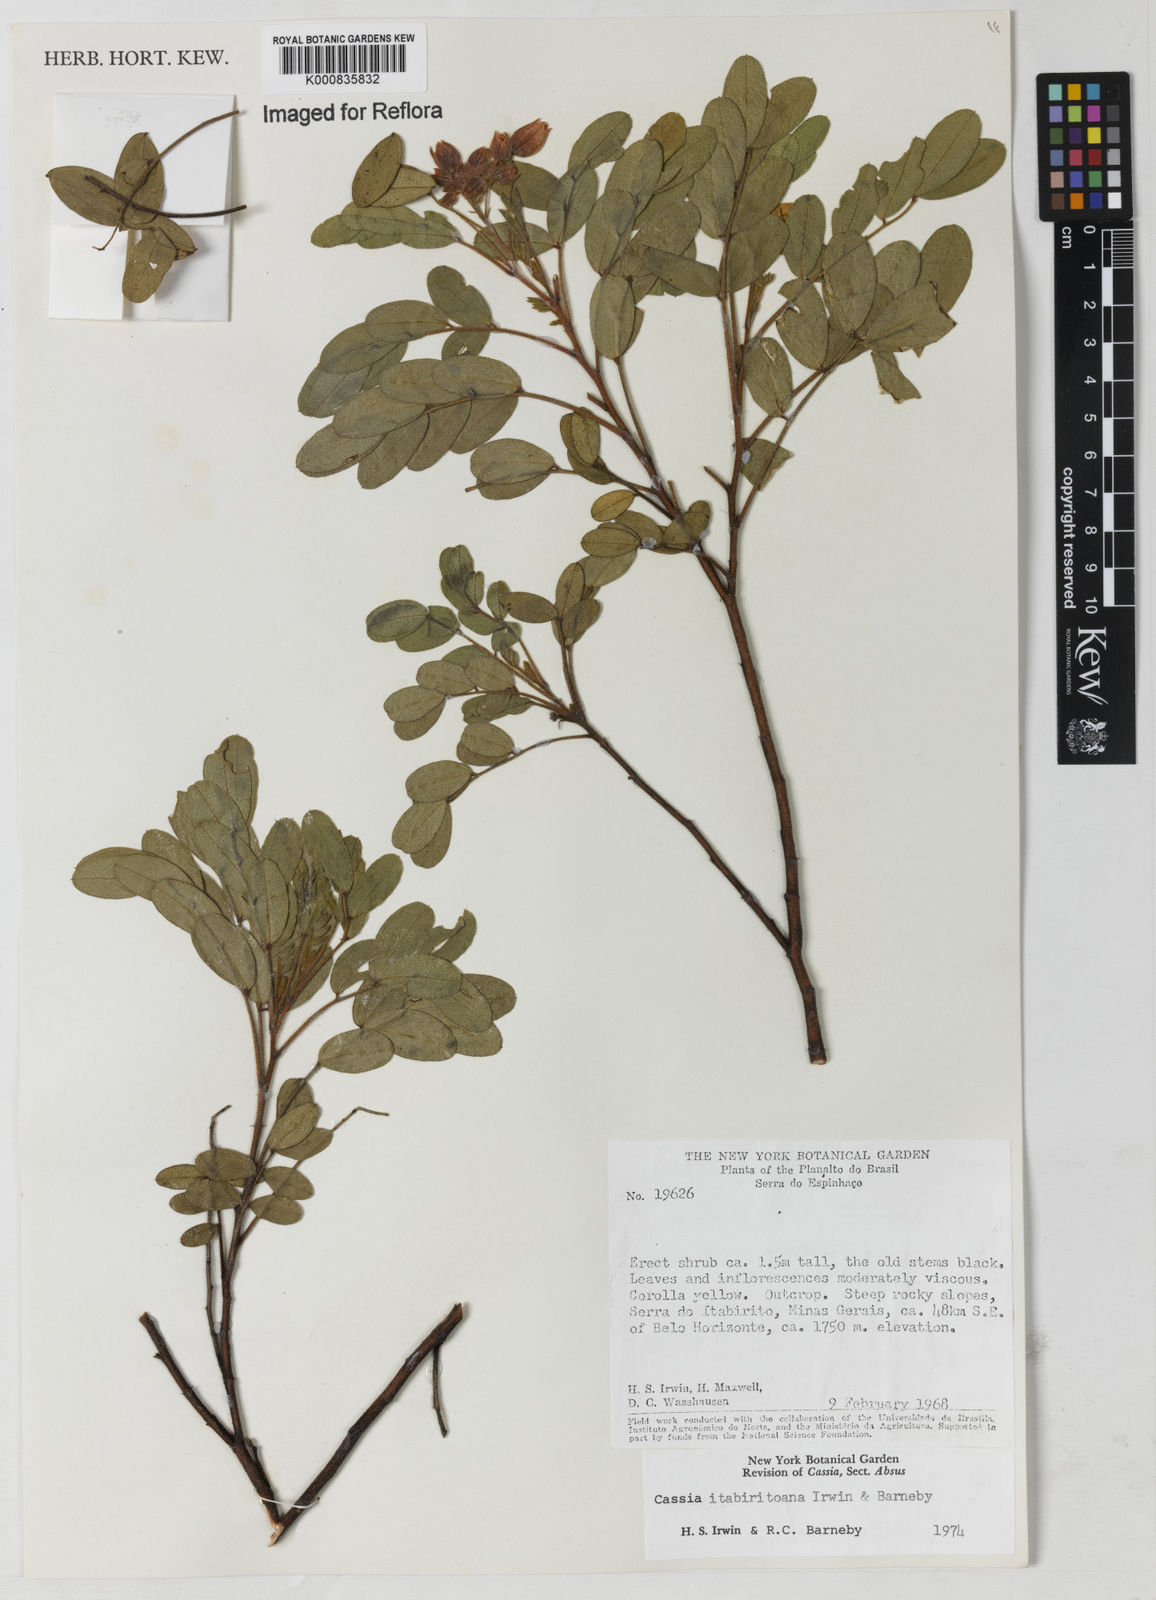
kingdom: Plantae
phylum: Tracheophyta
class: Magnoliopsida
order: Fabales
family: Fabaceae
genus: Chamaecrista
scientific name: Chamaecrista itabiritoana
